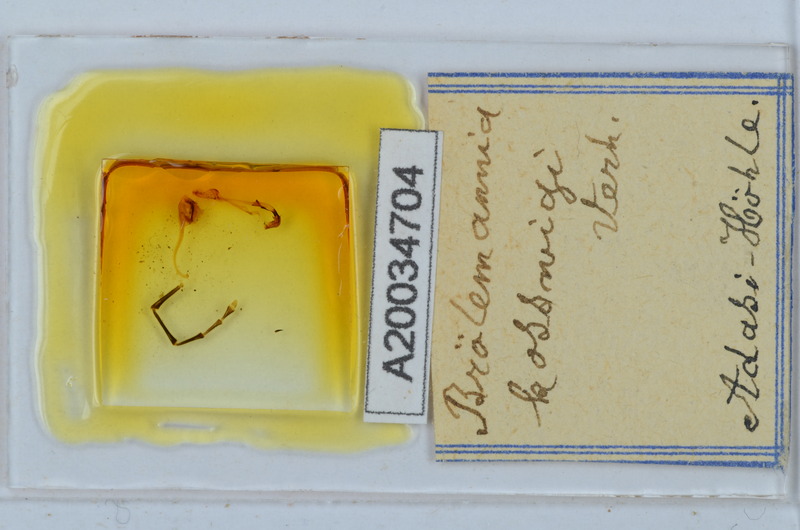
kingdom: Animalia
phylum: Arthropoda
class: Diplopoda
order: Callipodida
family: Schizopetalidae
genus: Eurygyrus
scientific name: Eurygyrus bilselii
